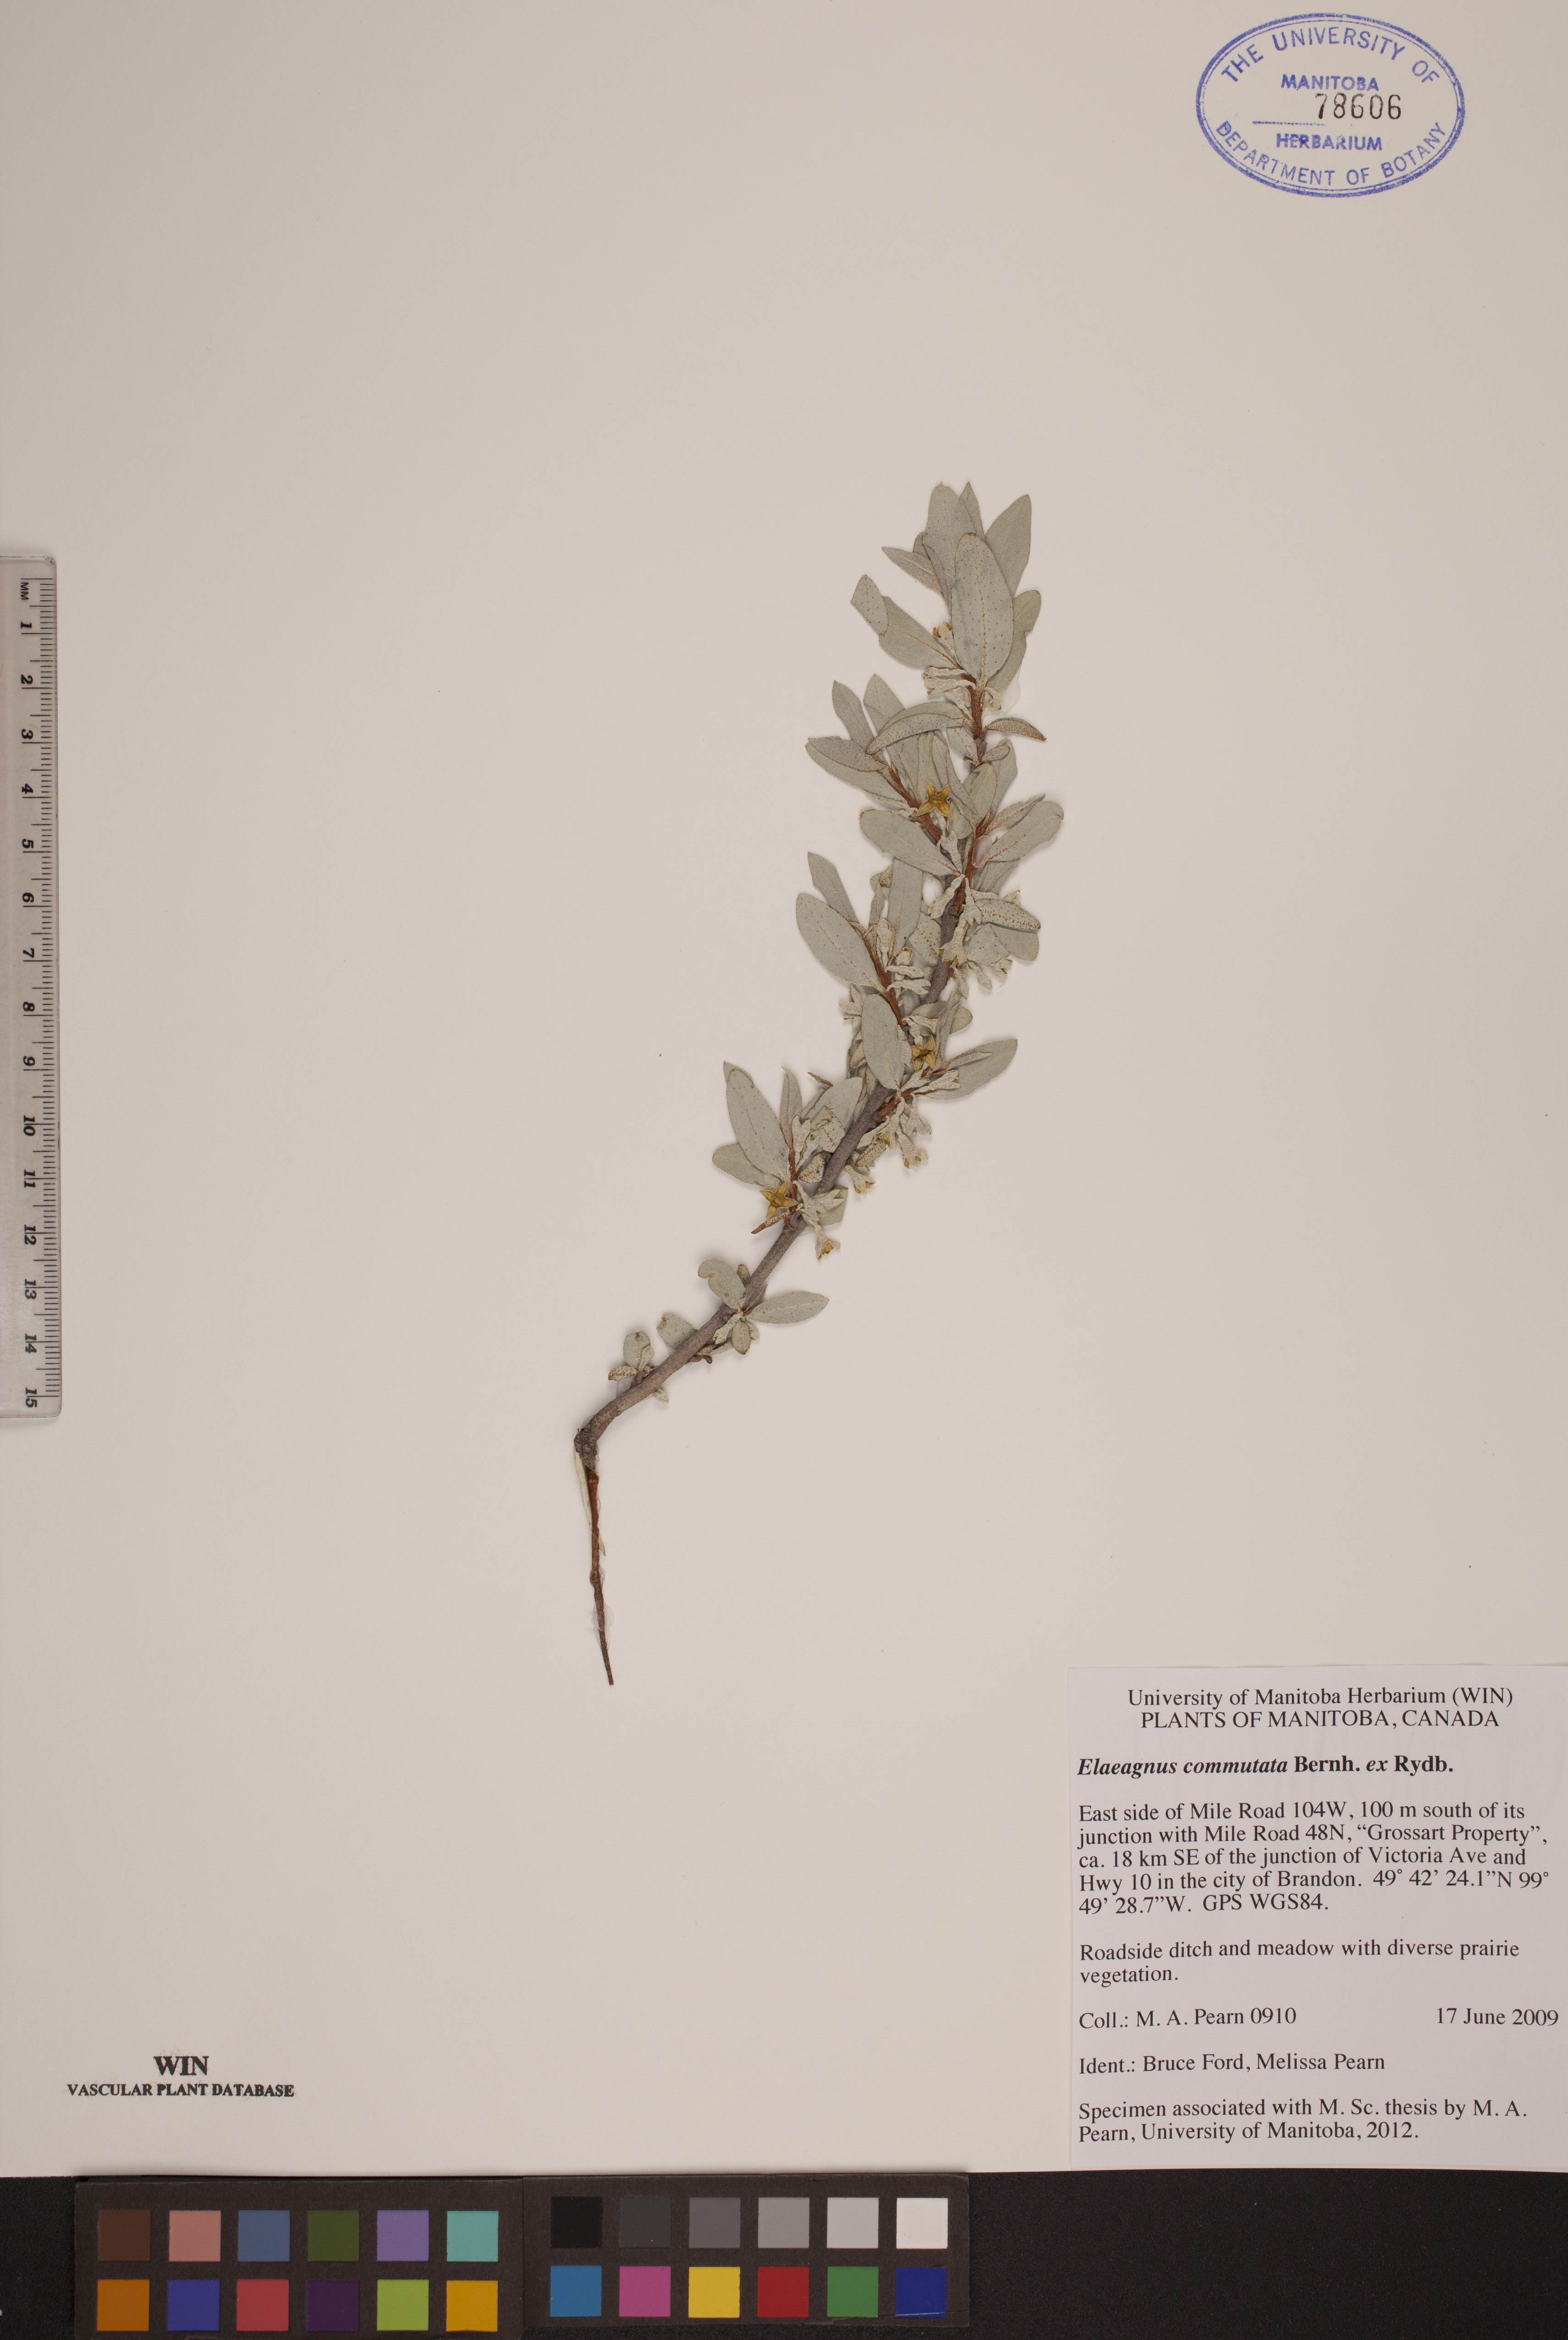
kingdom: Plantae
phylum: Tracheophyta
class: Magnoliopsida
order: Rosales
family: Elaeagnaceae
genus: Elaeagnus
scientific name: Elaeagnus commutata
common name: Silverberry
